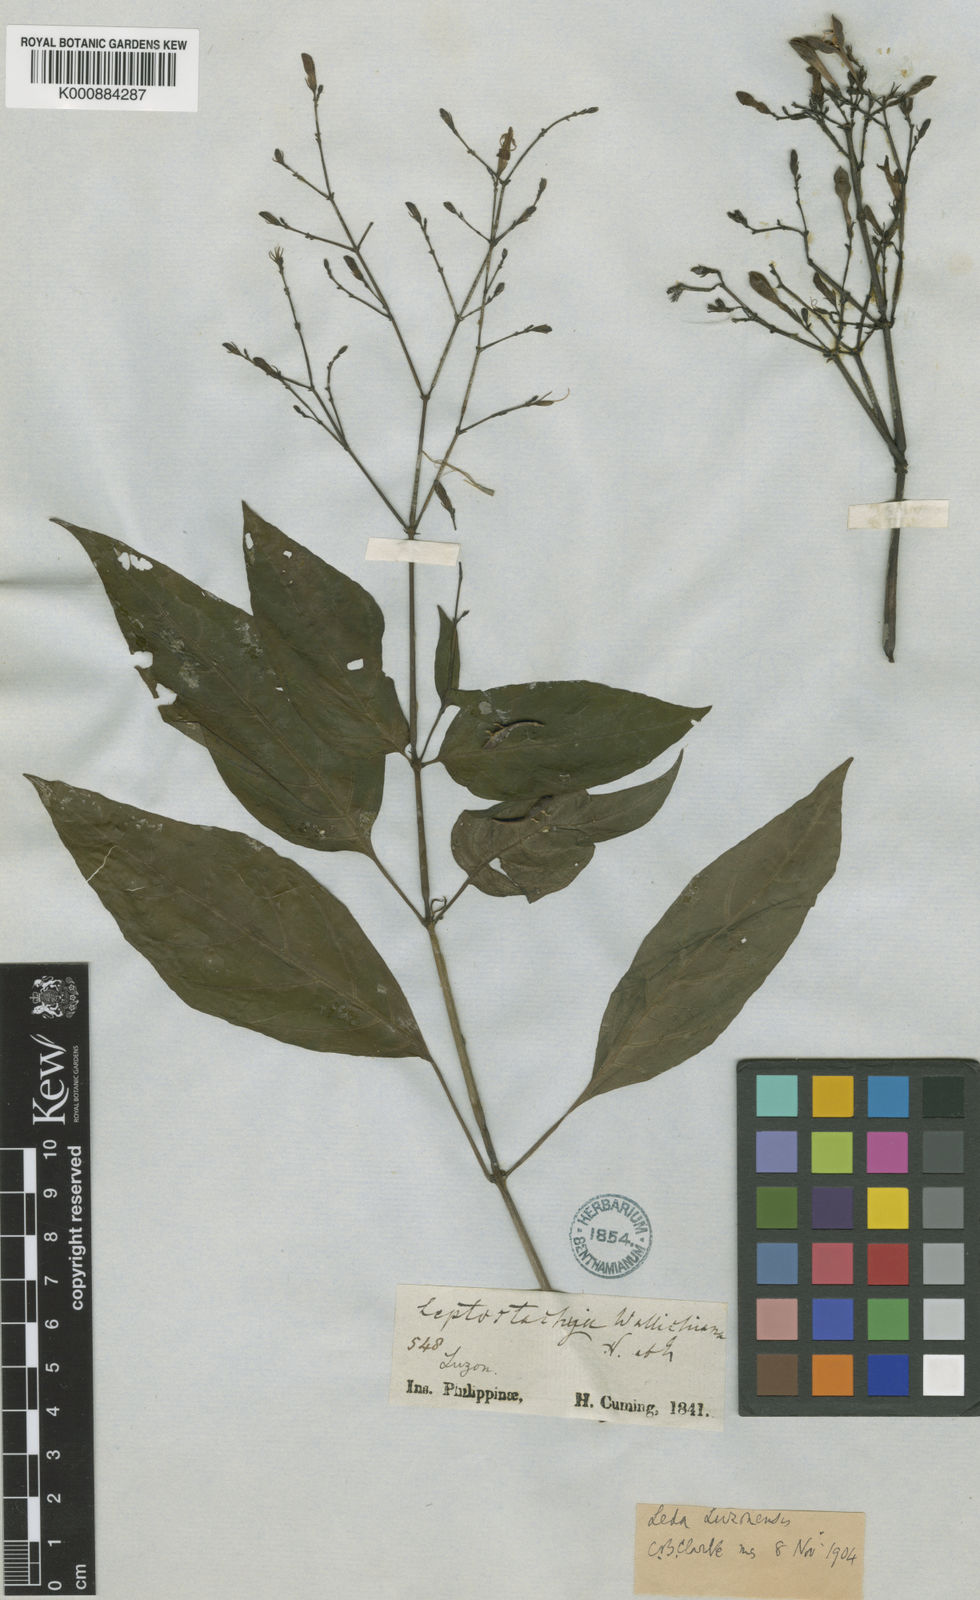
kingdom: Plantae
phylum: Tracheophyta
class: Magnoliopsida
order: Lamiales
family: Acanthaceae
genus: Rhaphidospora
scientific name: Rhaphidospora luzonensis
